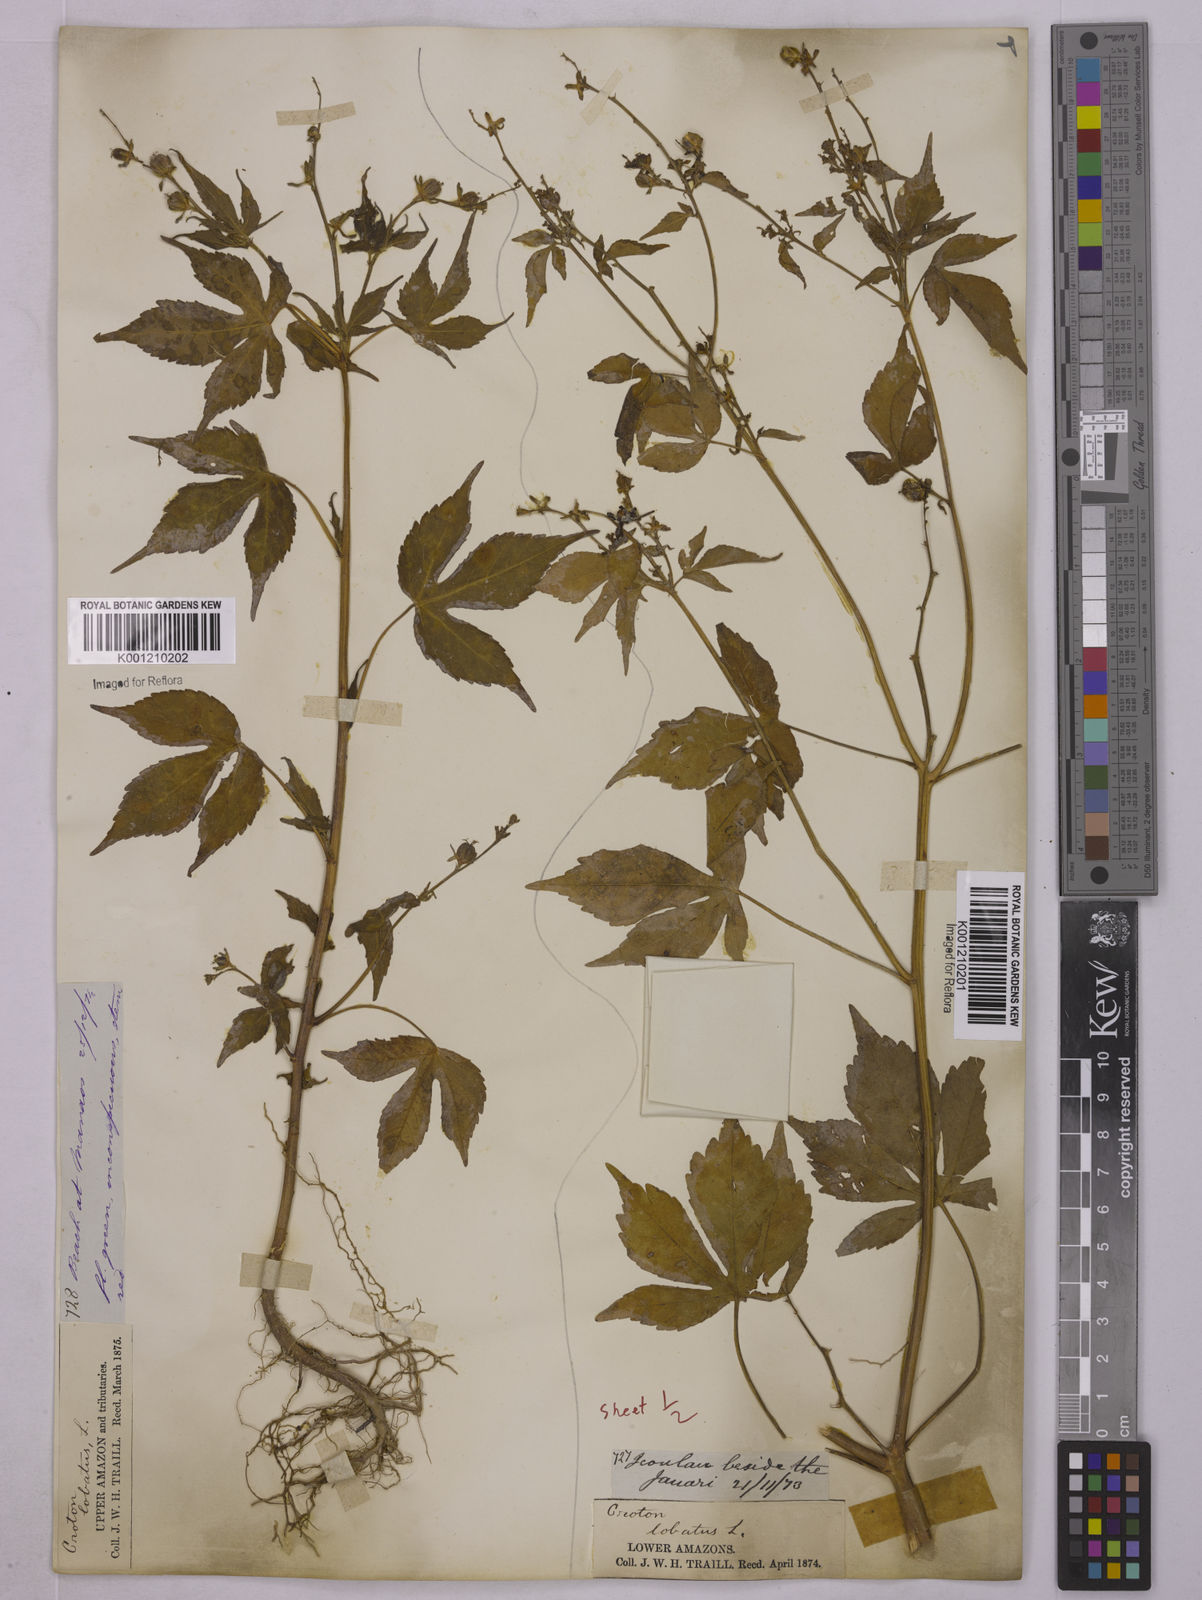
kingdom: Plantae
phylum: Tracheophyta
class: Magnoliopsida
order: Malpighiales
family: Euphorbiaceae
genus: Astraea
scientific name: Astraea lobata
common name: Lobed croton
